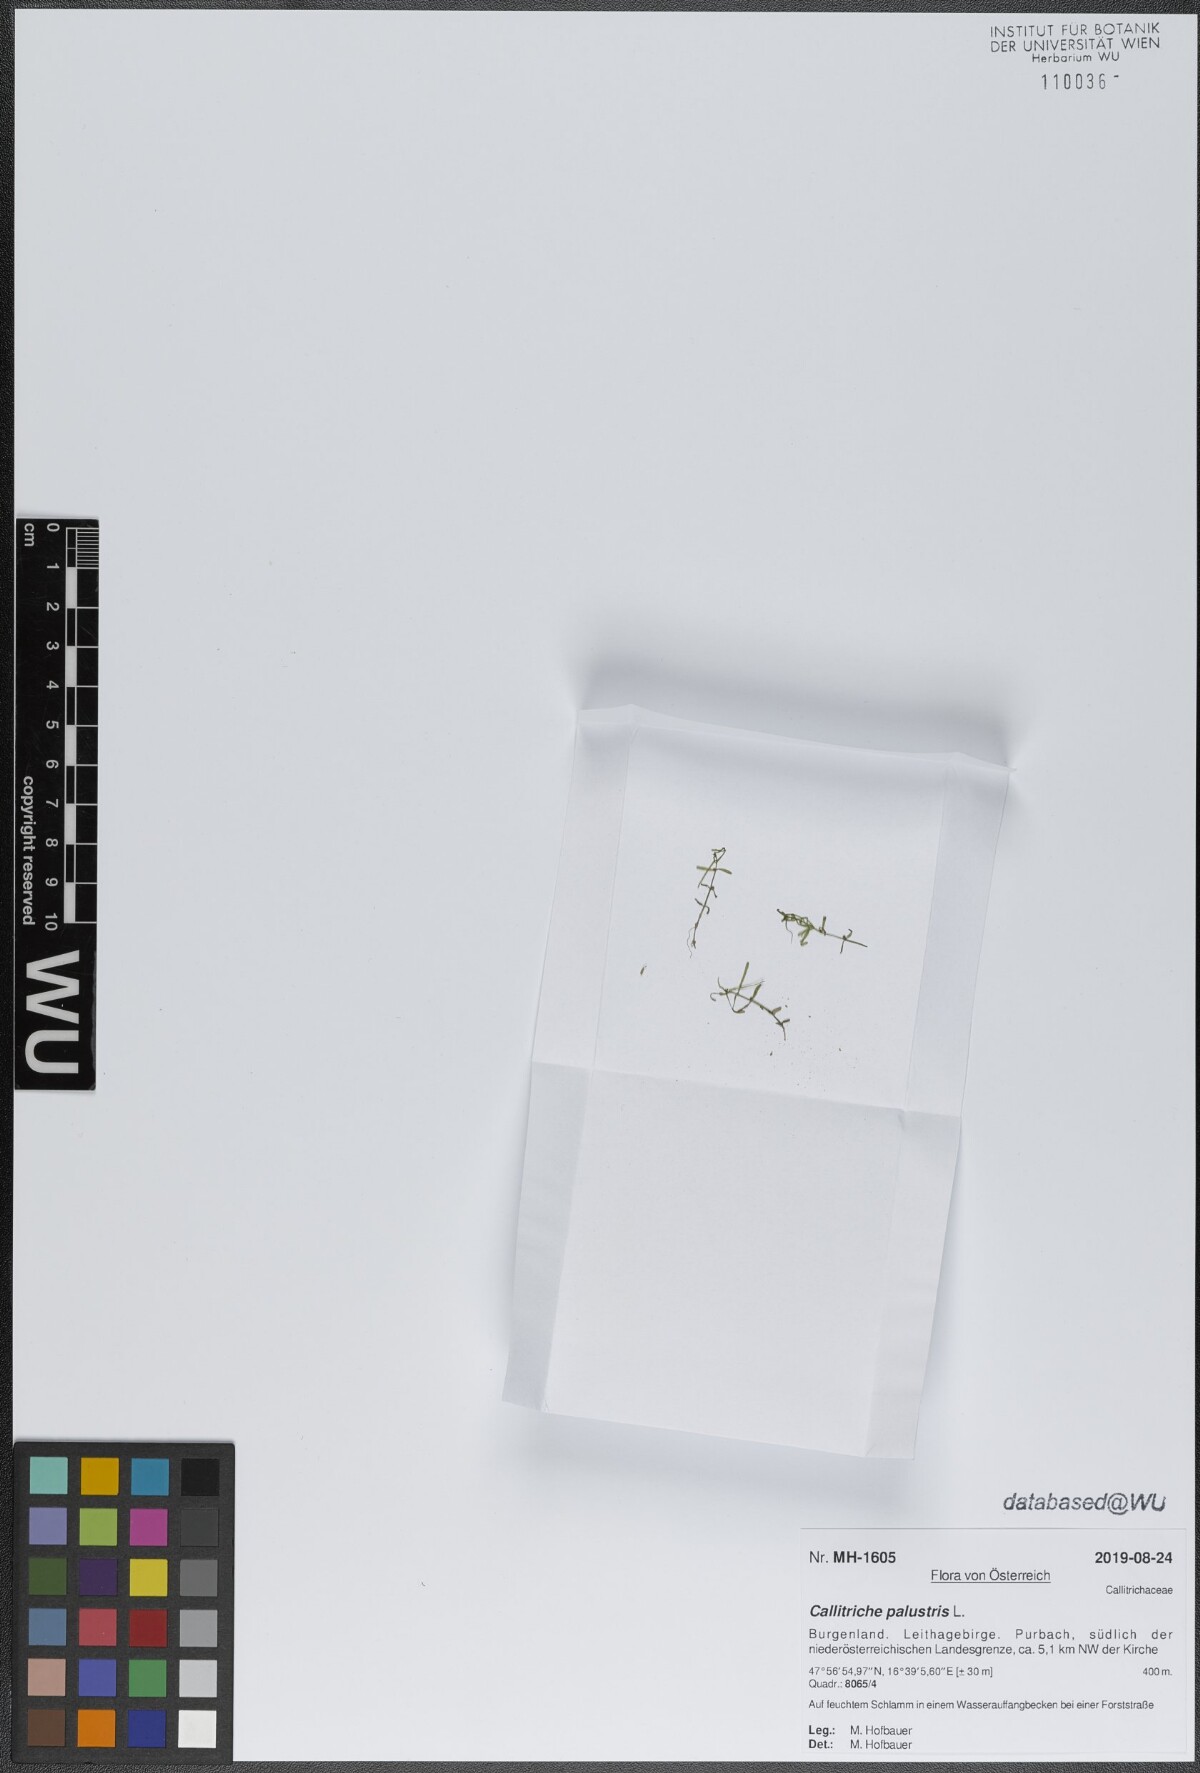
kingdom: Plantae
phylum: Tracheophyta
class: Magnoliopsida
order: Lamiales
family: Plantaginaceae
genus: Callitriche
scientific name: Callitriche palustris
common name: Spring water-starwort
